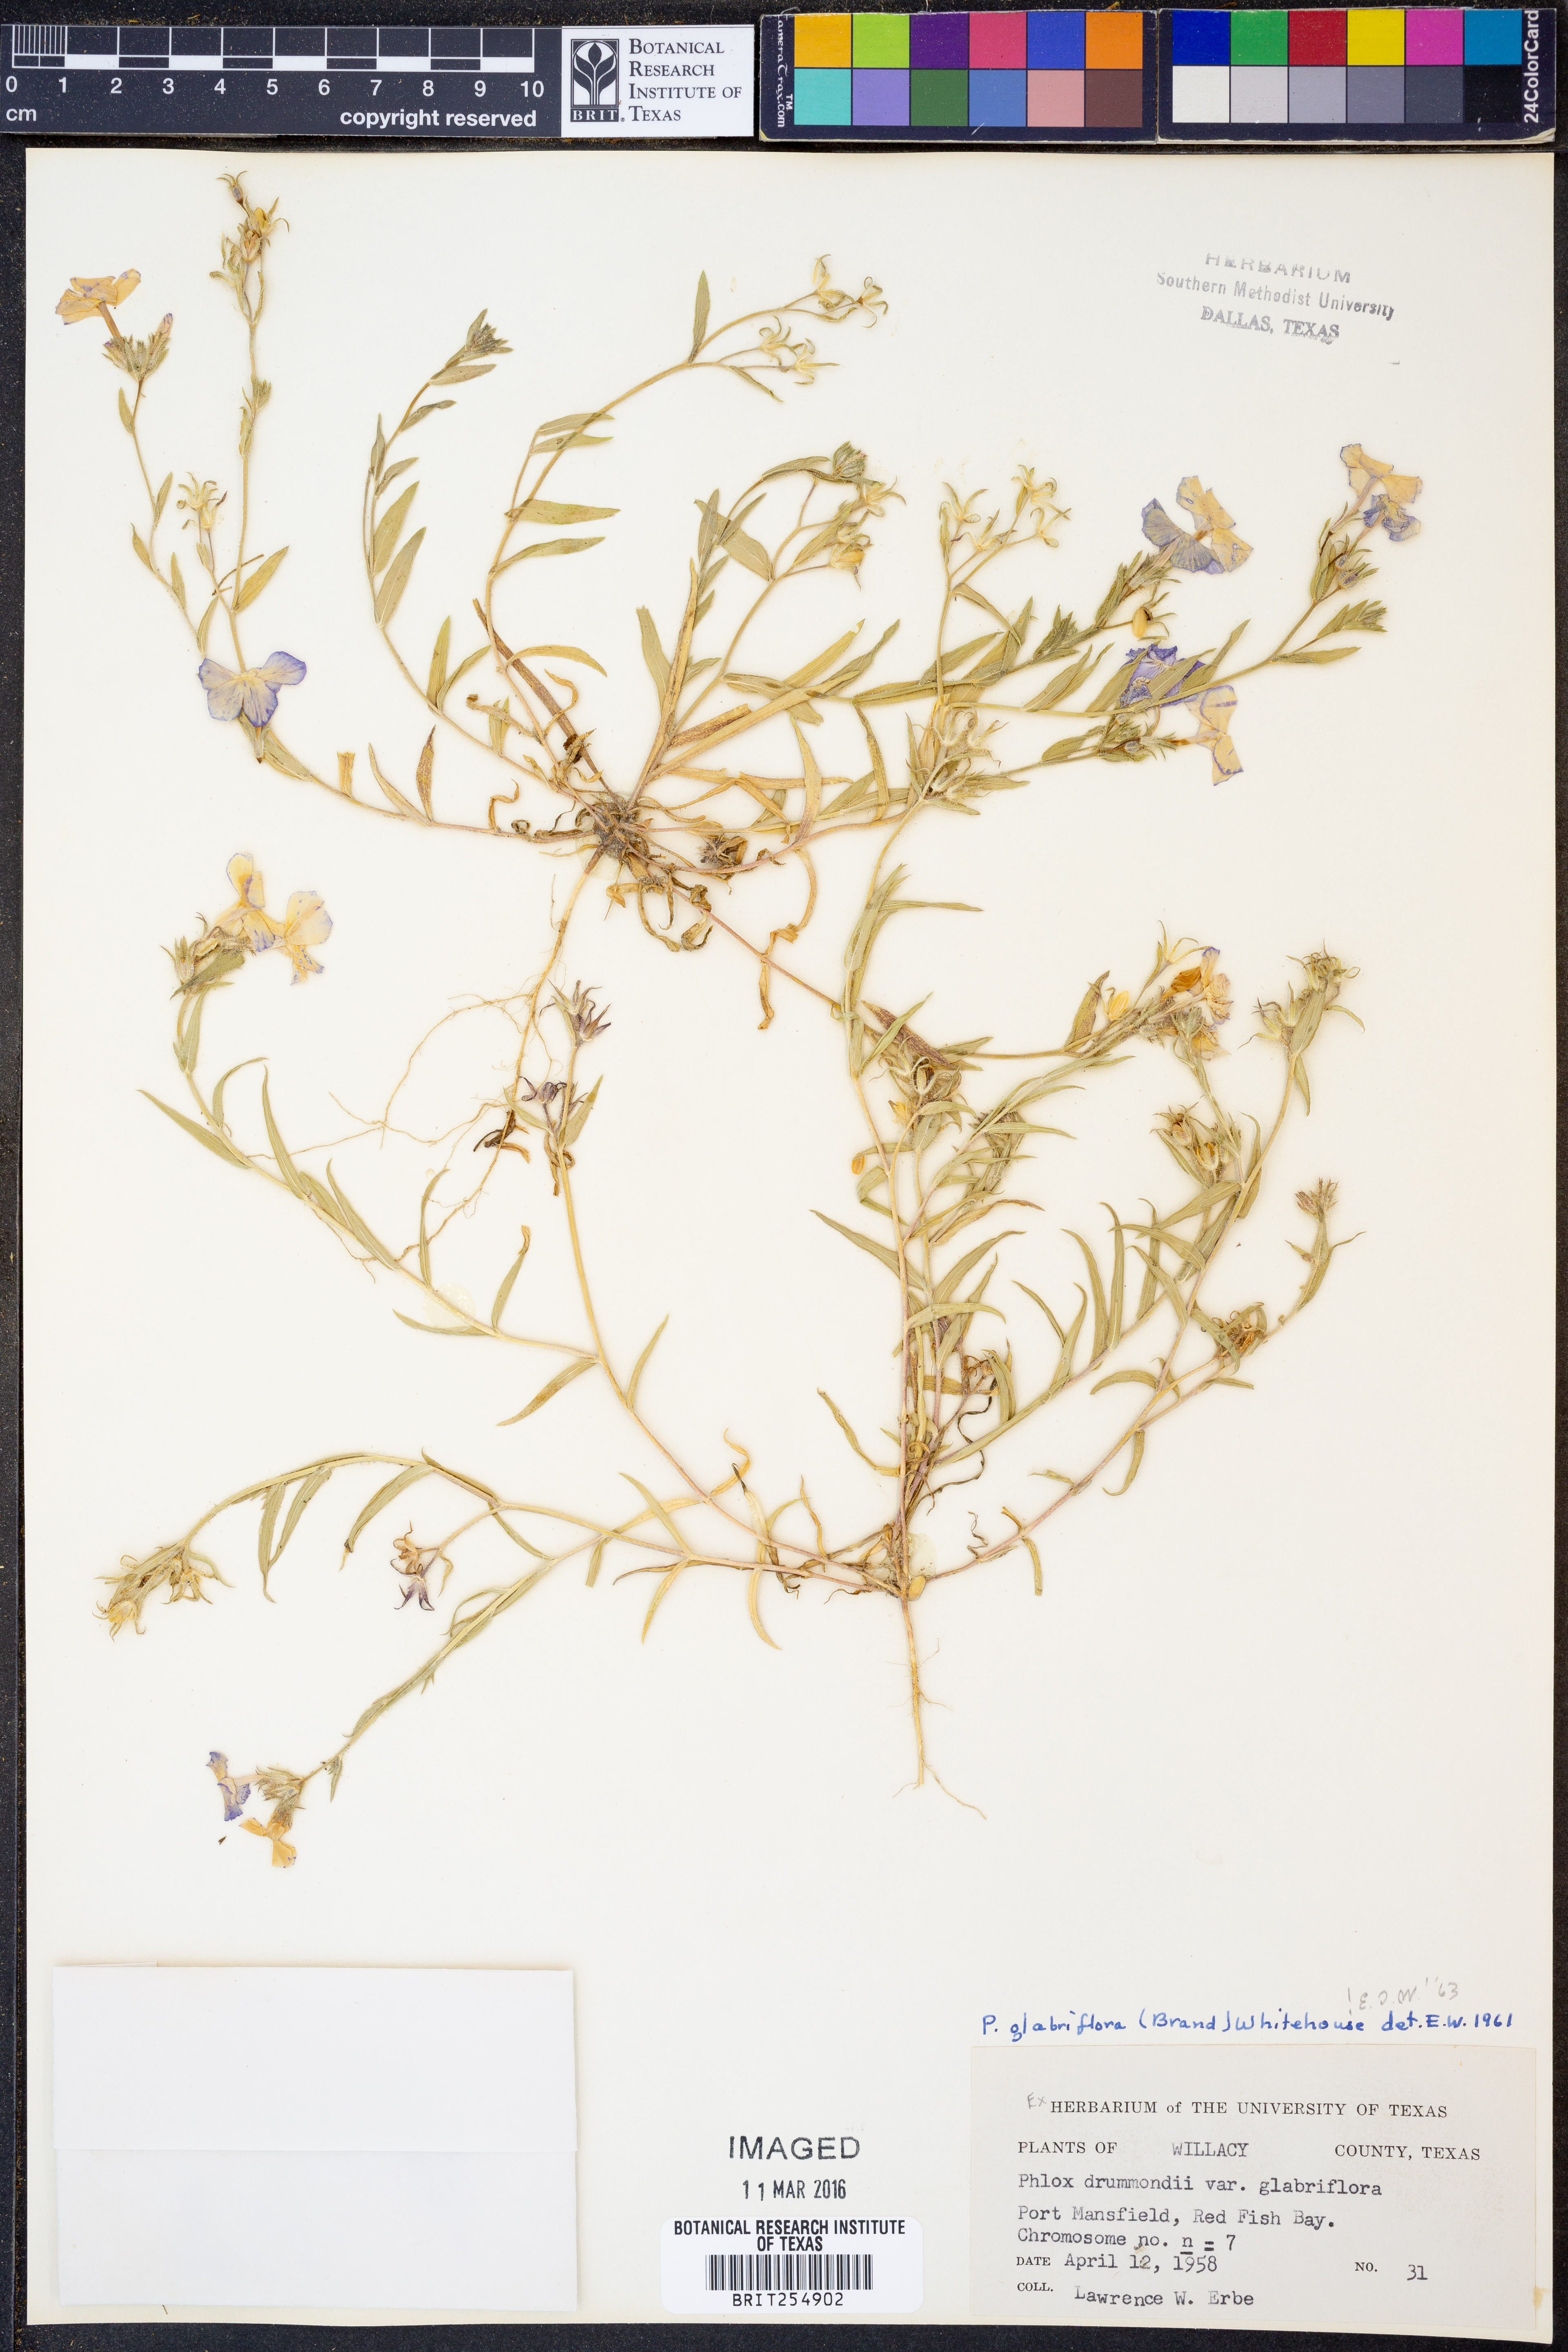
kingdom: Plantae
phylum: Tracheophyta
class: Magnoliopsida
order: Ericales
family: Polemoniaceae
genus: Phlox
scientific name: Phlox glabriflora
